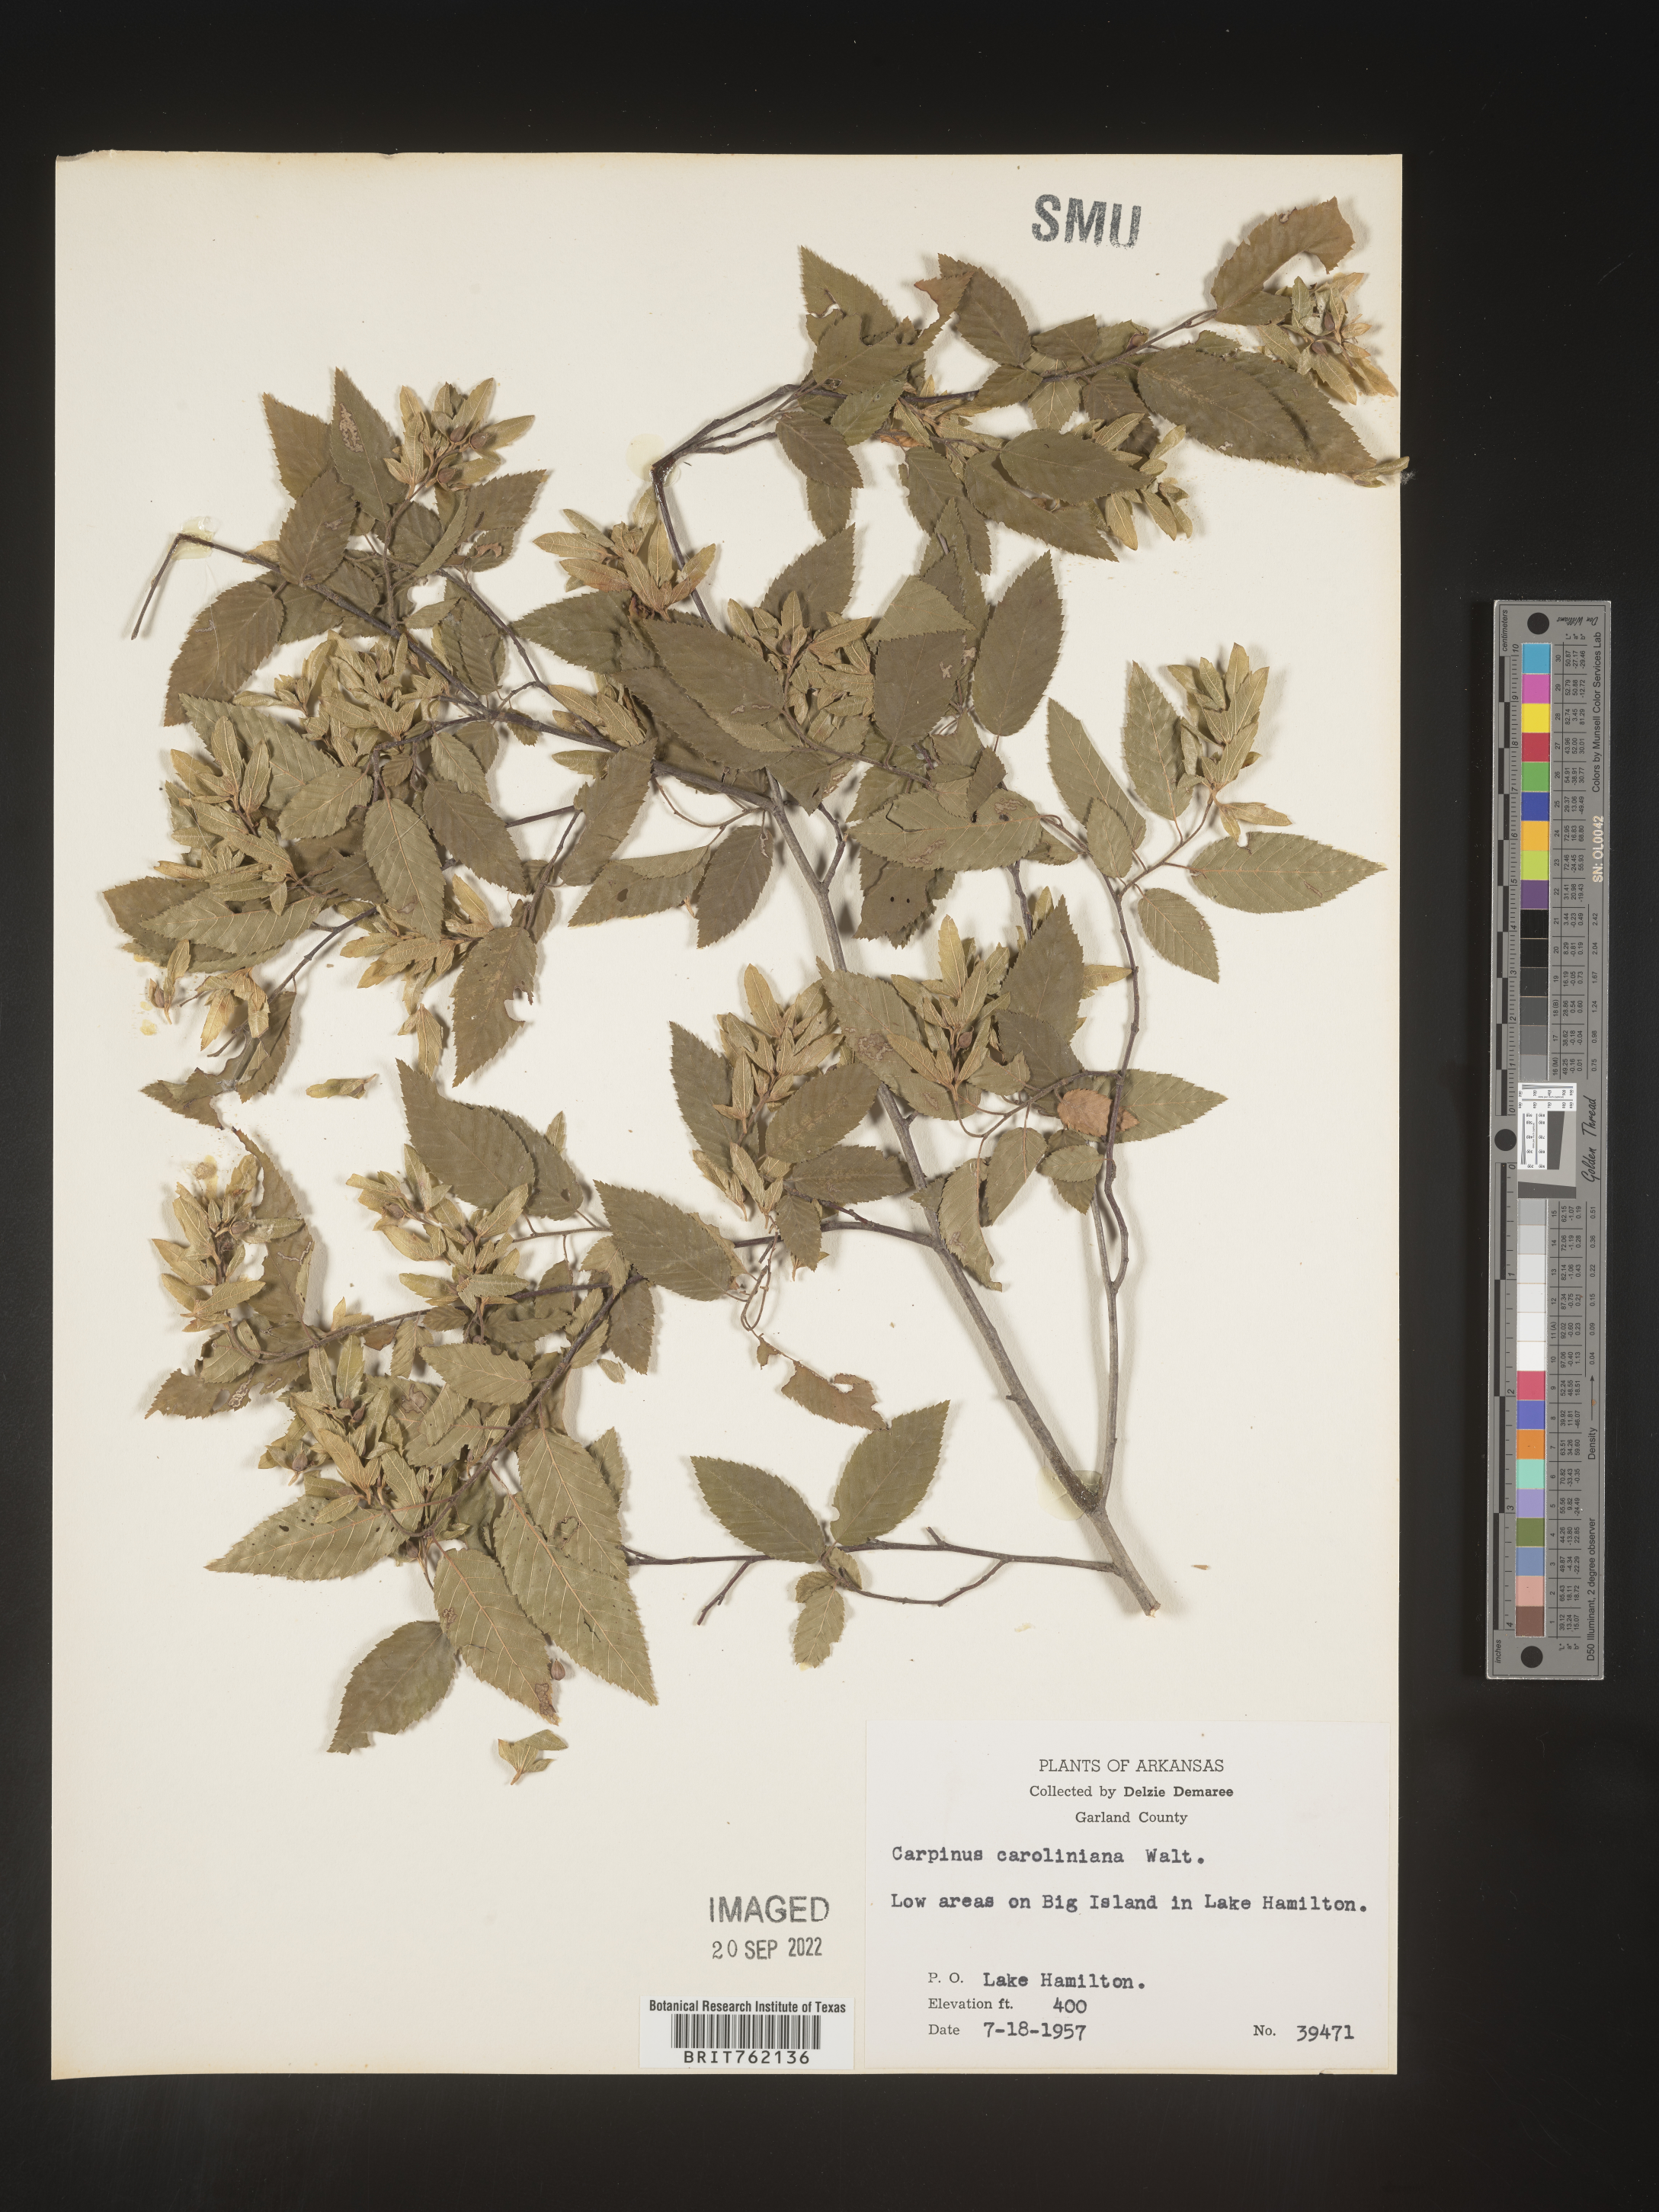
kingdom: Plantae
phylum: Tracheophyta
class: Magnoliopsida
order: Fagales
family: Betulaceae
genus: Carpinus
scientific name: Carpinus caroliniana
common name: American hornbeam
